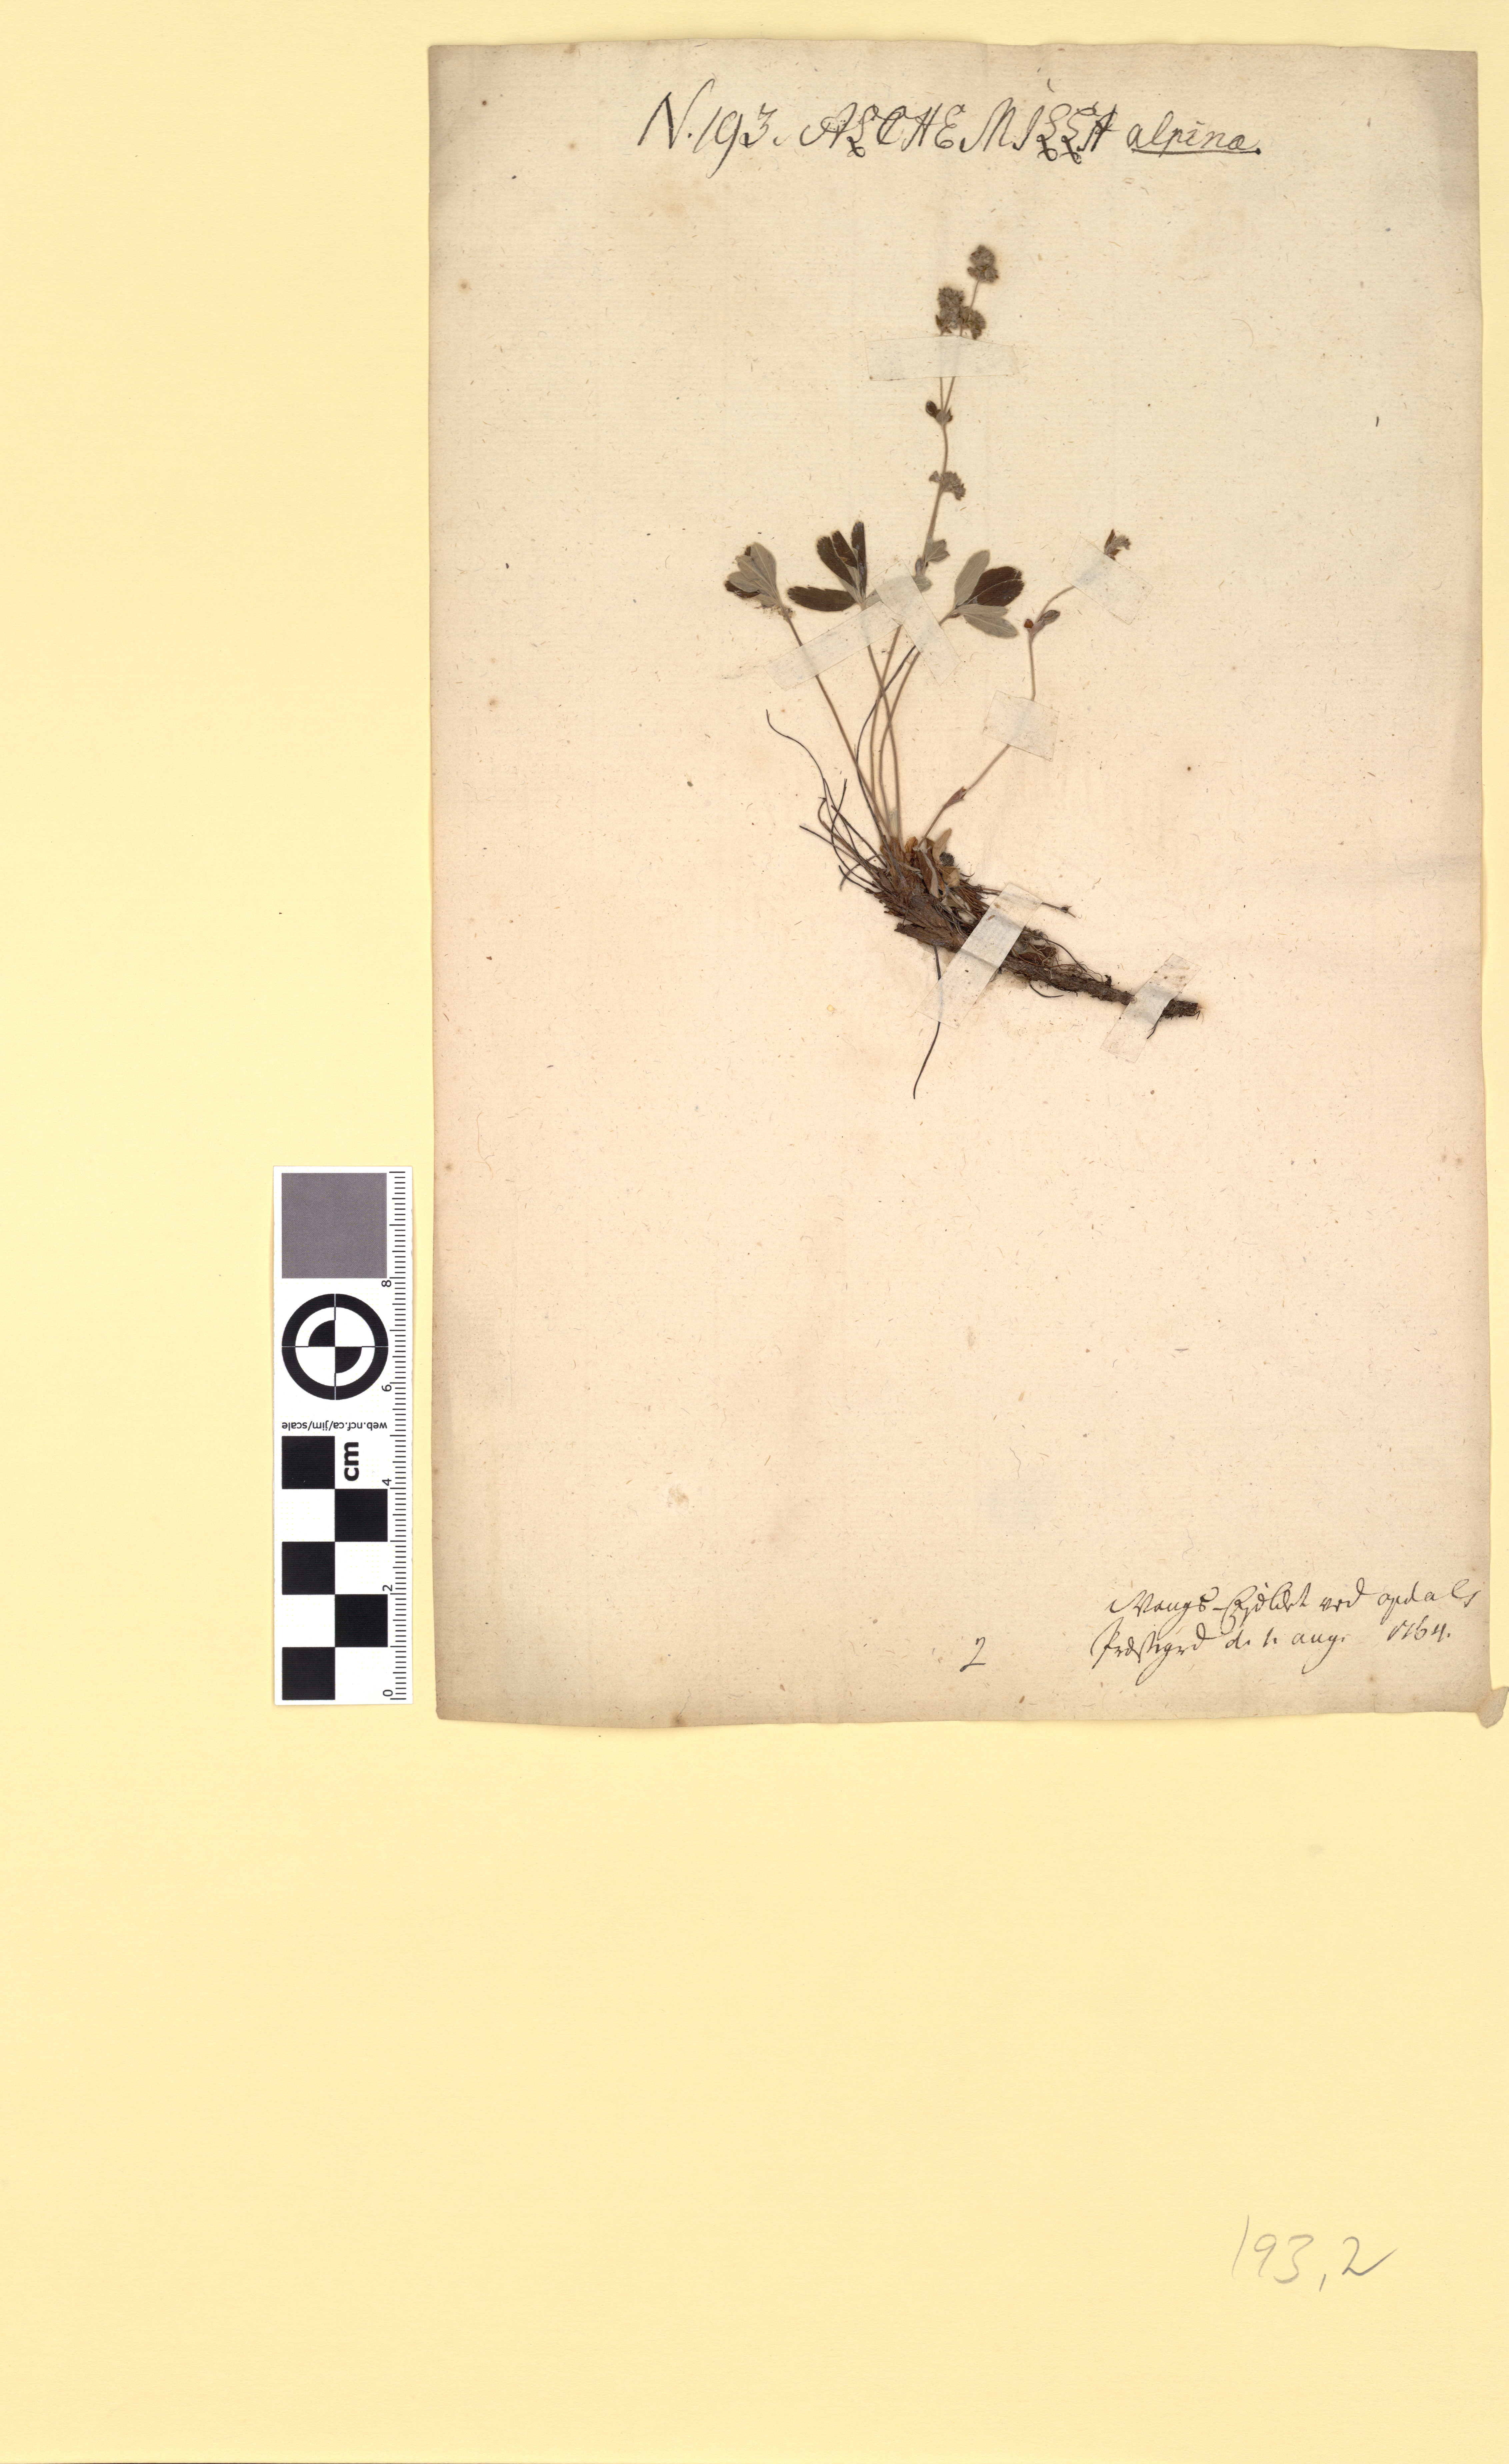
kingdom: Plantae
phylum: Tracheophyta
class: Magnoliopsida
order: Rosales
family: Rosaceae
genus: Alchemilla
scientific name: Alchemilla alpina
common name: Alpine lady's-mantle
